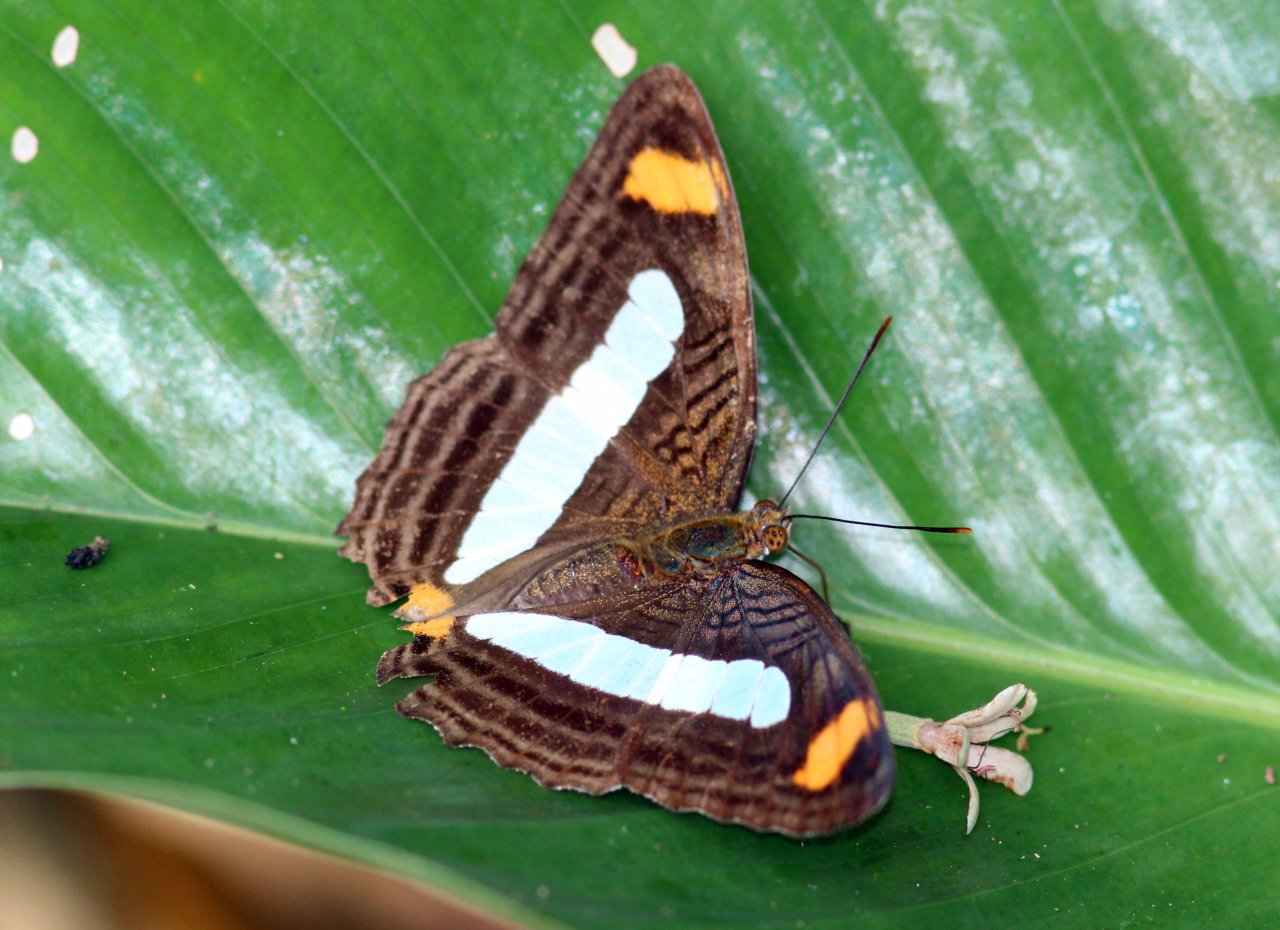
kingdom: Animalia
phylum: Arthropoda
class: Insecta
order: Lepidoptera
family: Nymphalidae
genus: Limenitis
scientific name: Limenitis Adelpha iphiclus
